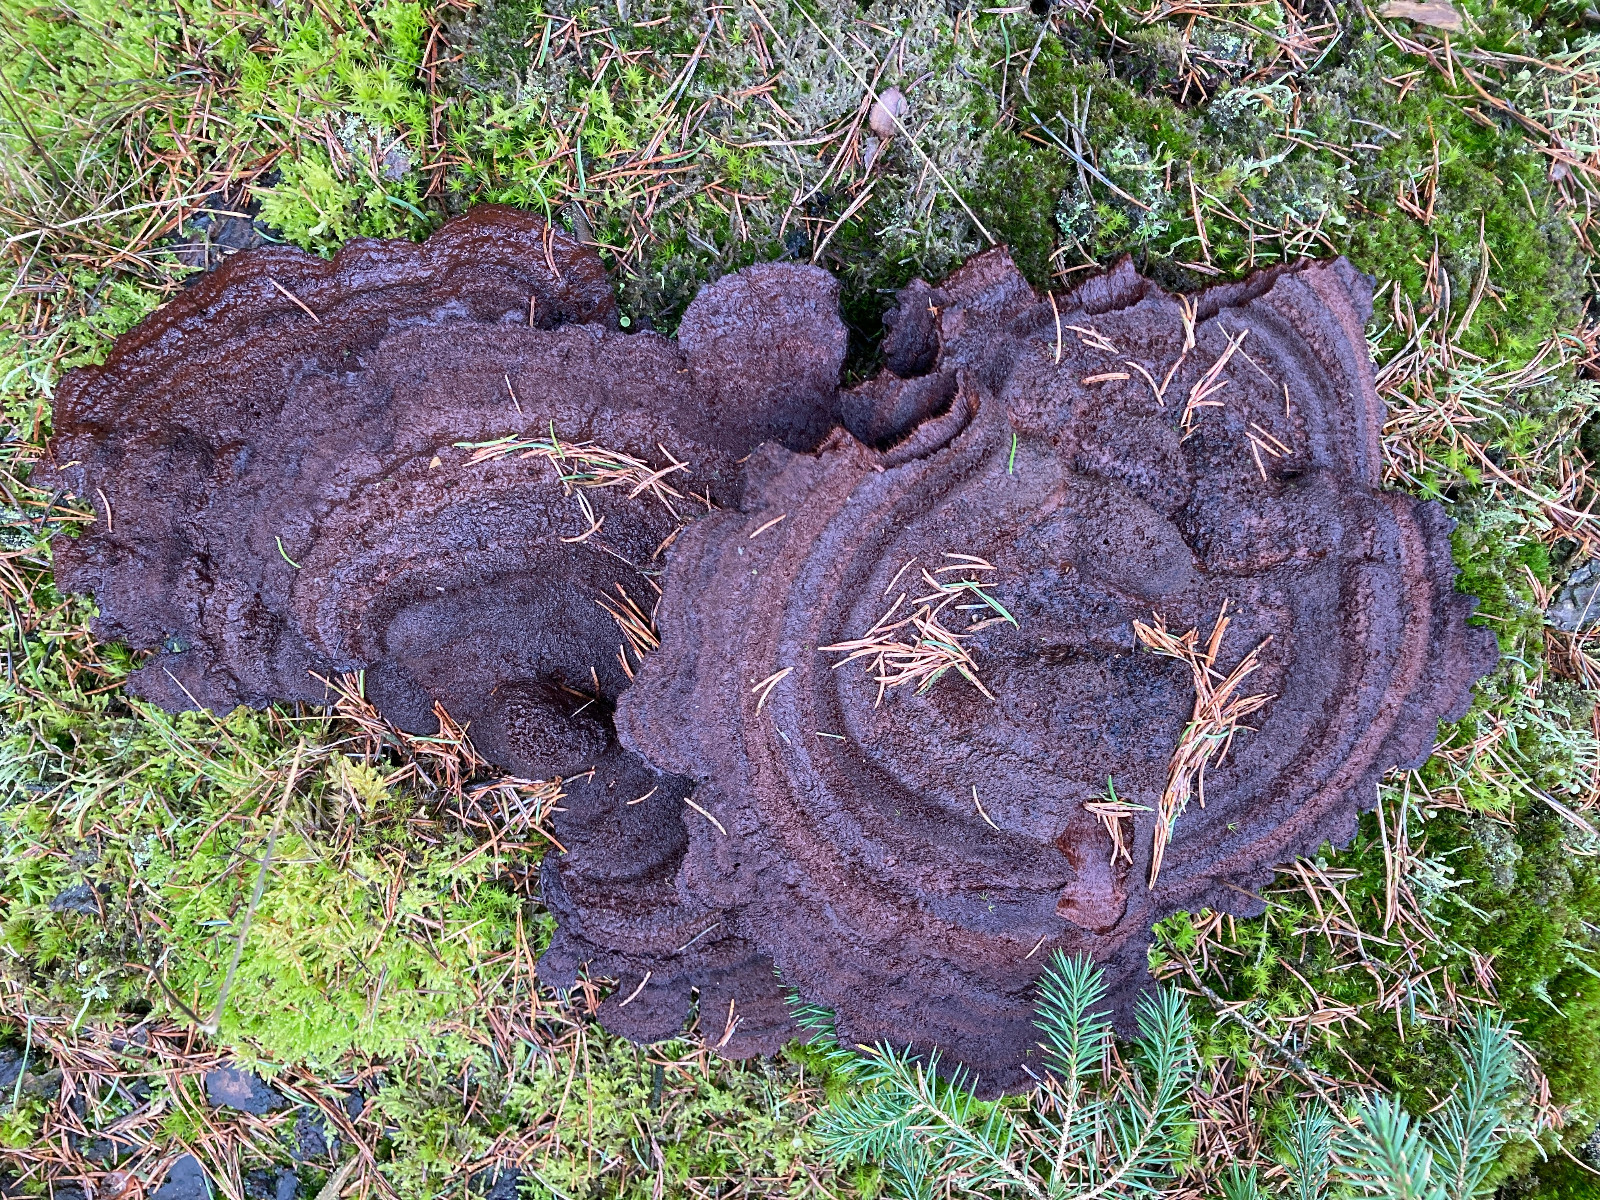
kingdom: Fungi
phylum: Basidiomycota
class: Agaricomycetes
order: Polyporales
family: Laetiporaceae
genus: Phaeolus
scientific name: Phaeolus schweinitzii
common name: brunporesvamp
